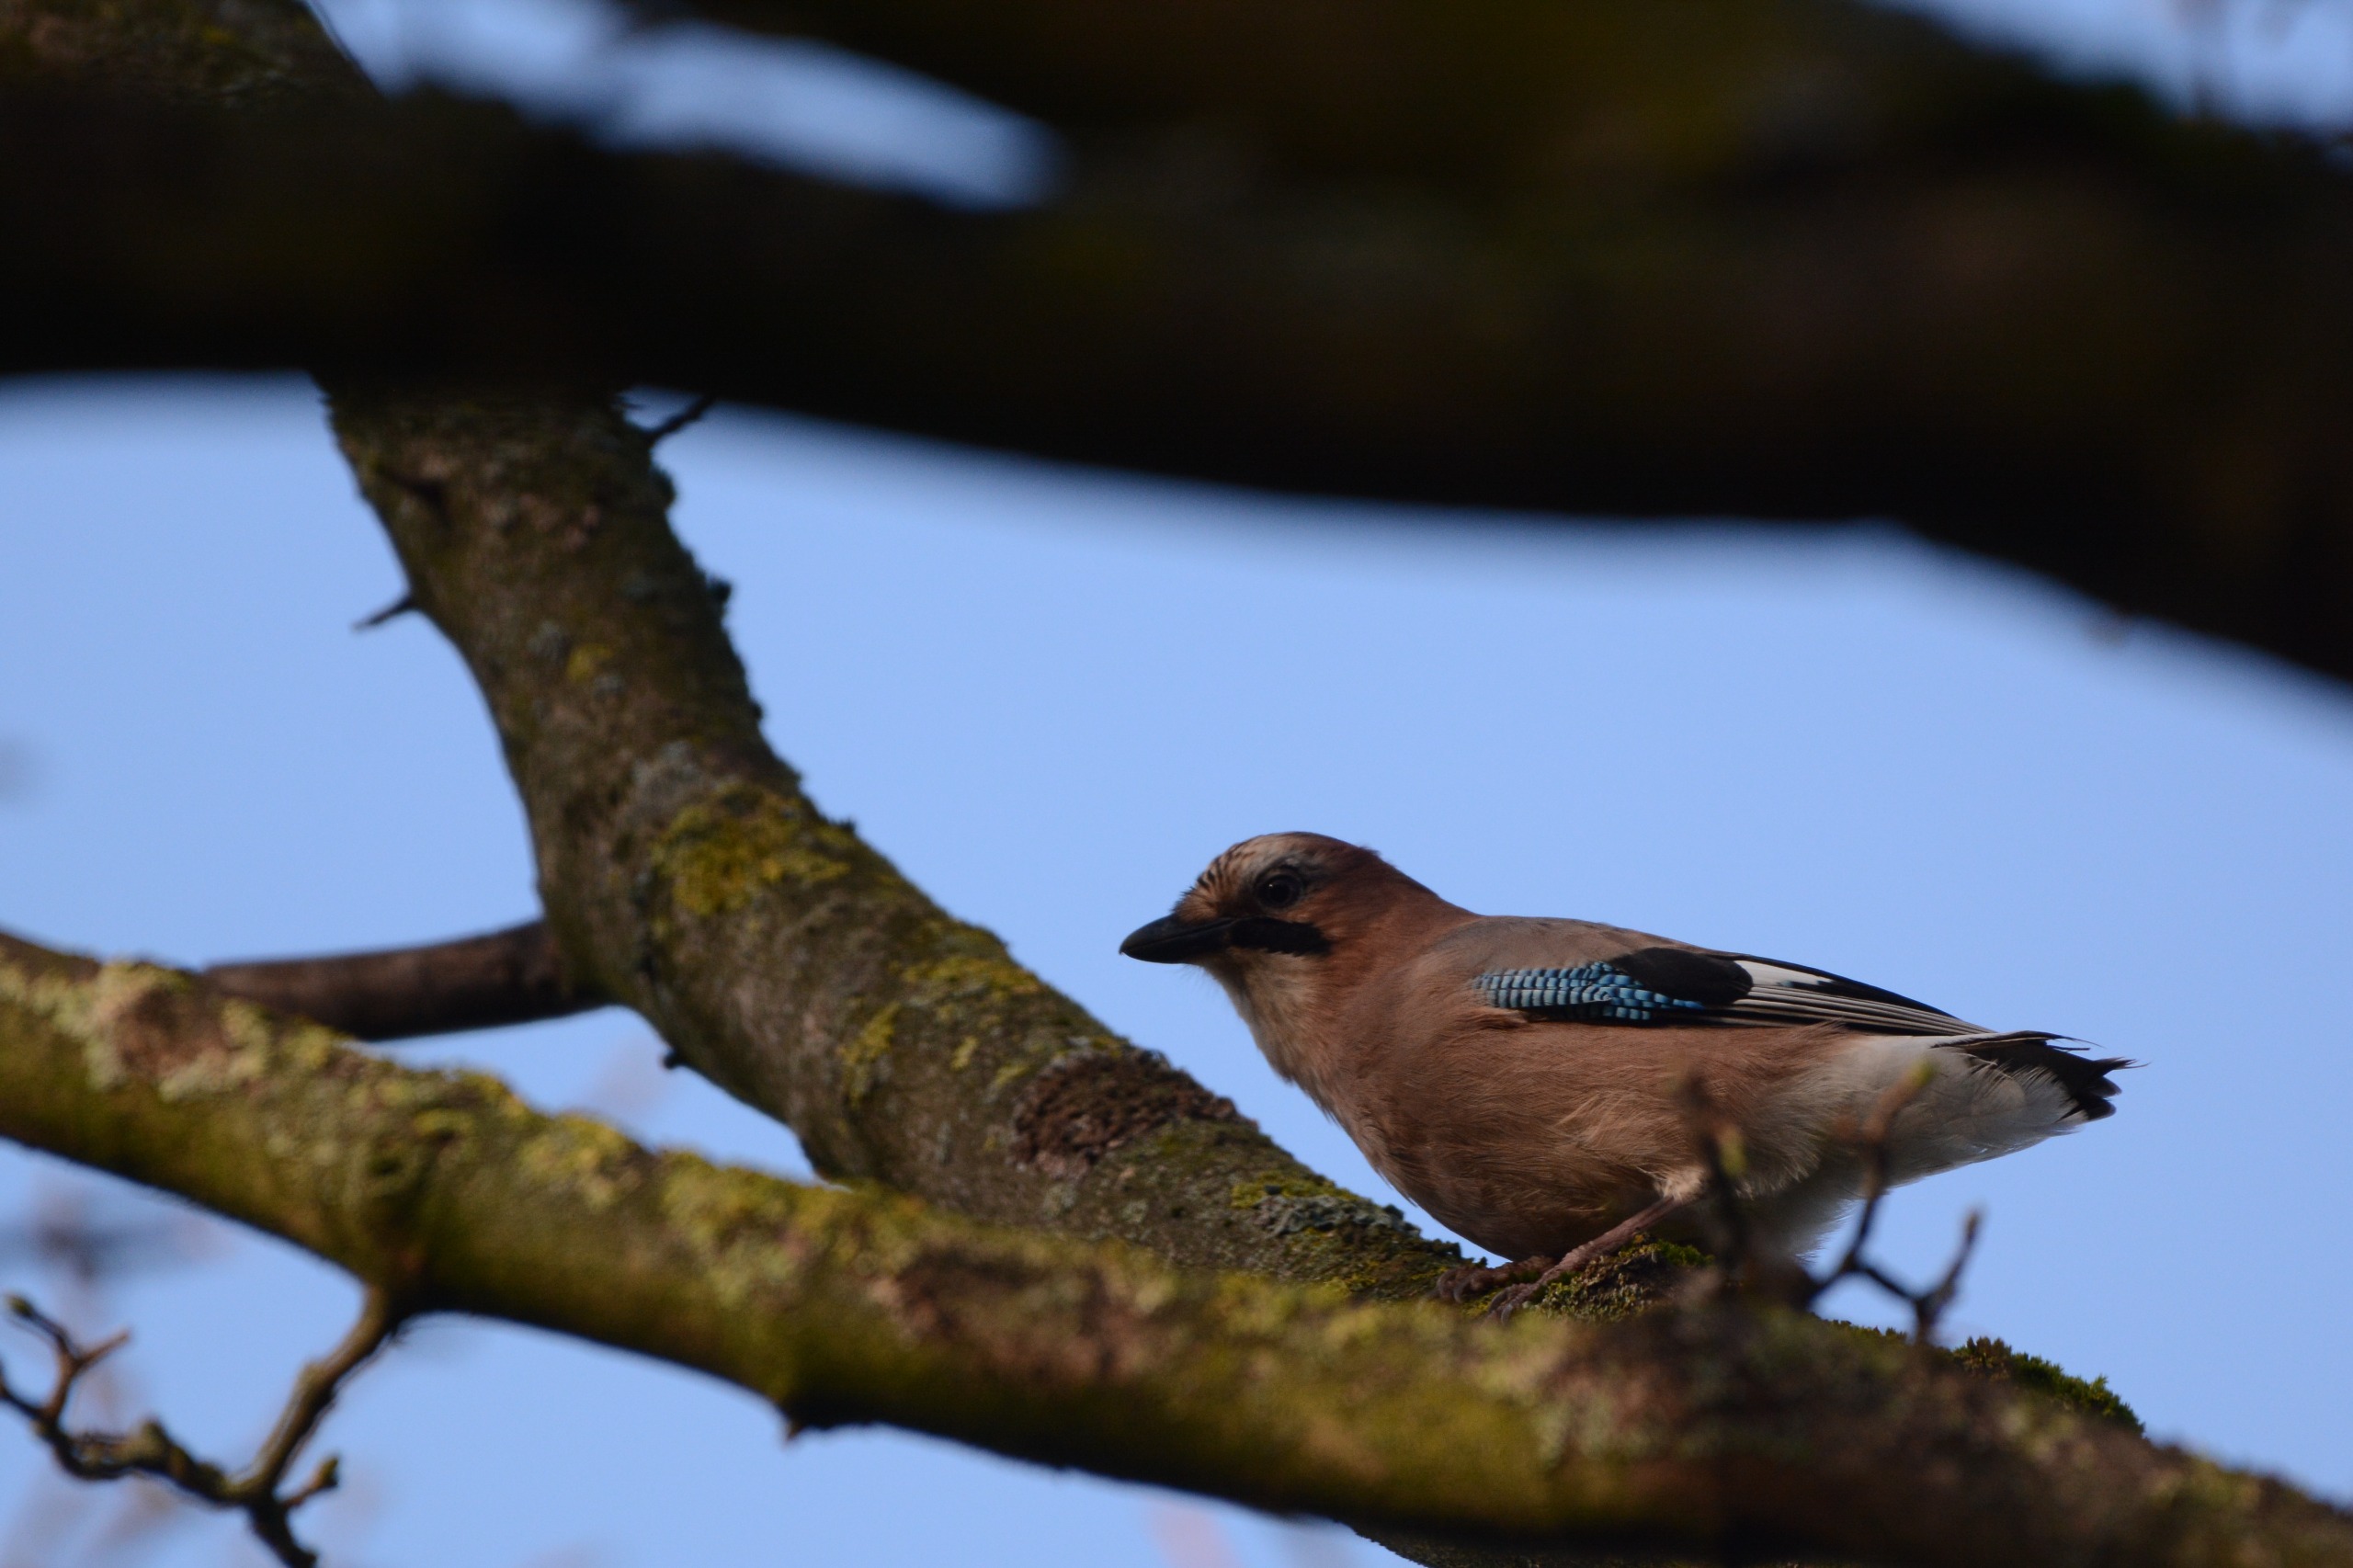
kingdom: Animalia
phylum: Chordata
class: Aves
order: Passeriformes
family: Corvidae
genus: Garrulus
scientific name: Garrulus glandarius
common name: Skovskade
